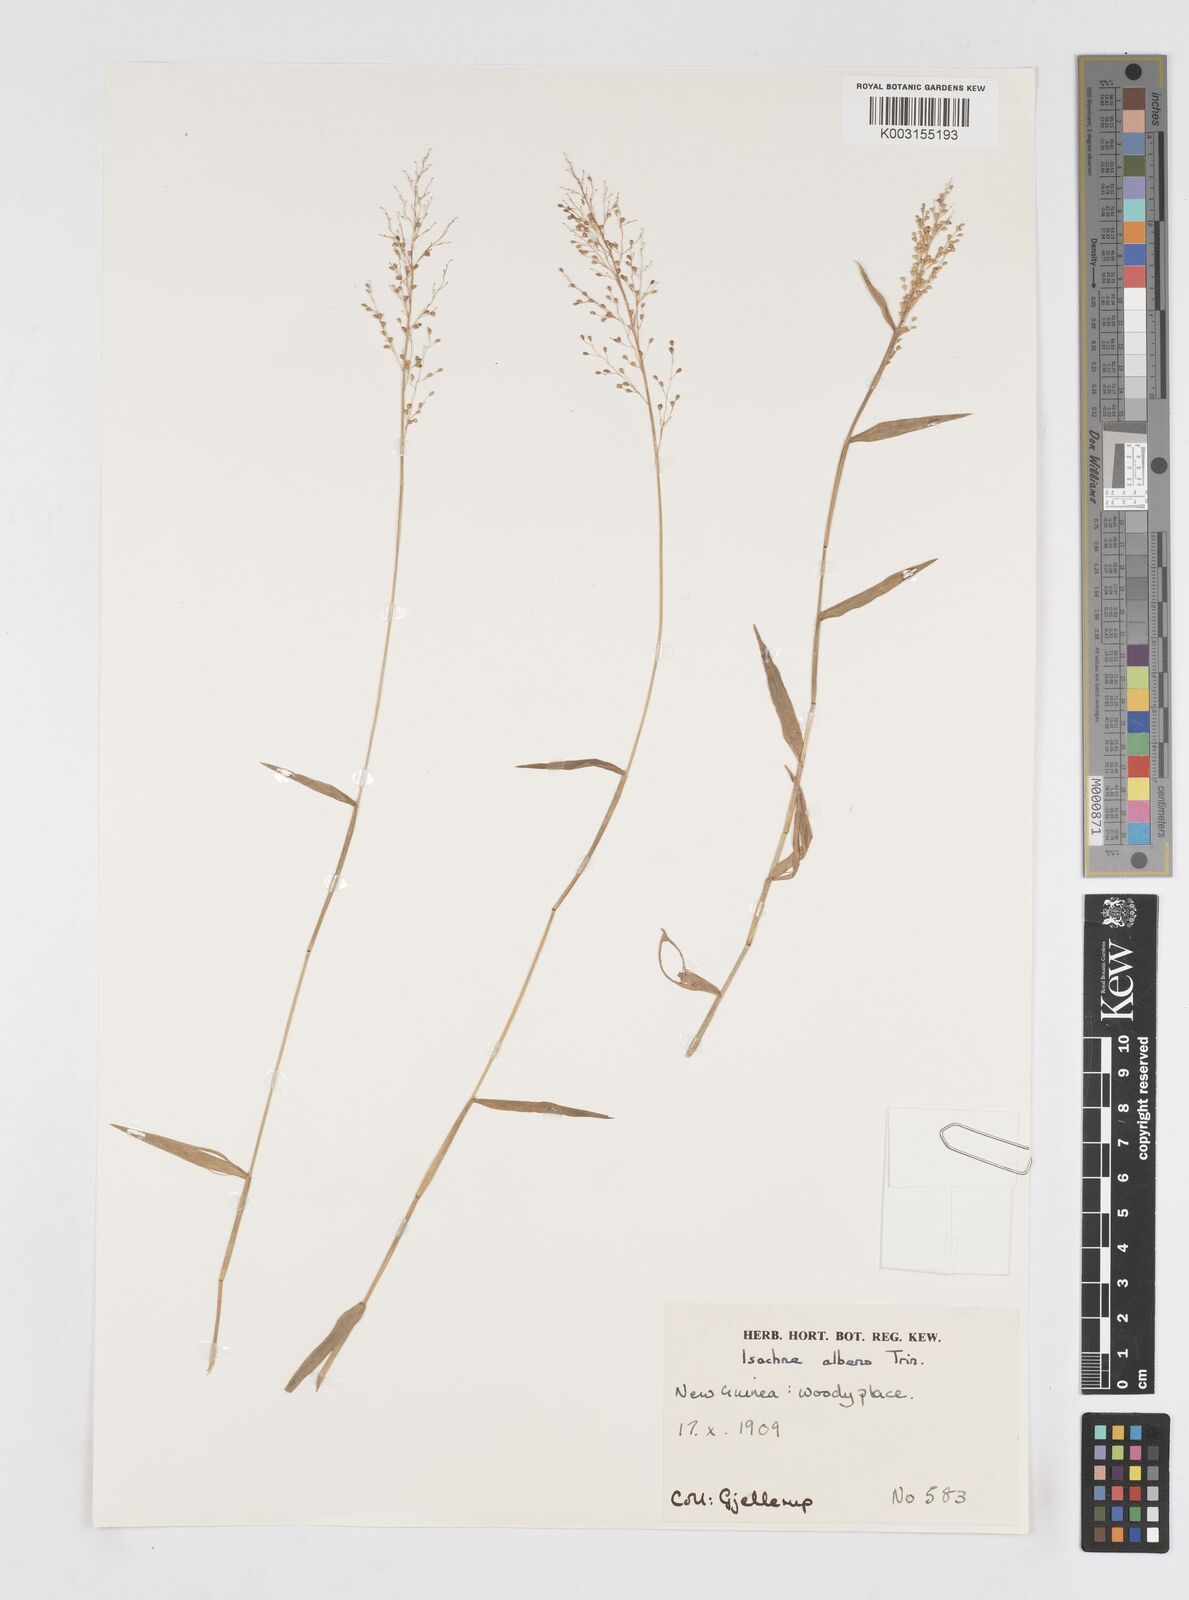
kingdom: Plantae
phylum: Tracheophyta
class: Liliopsida
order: Poales
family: Poaceae
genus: Isachne
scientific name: Isachne albens
